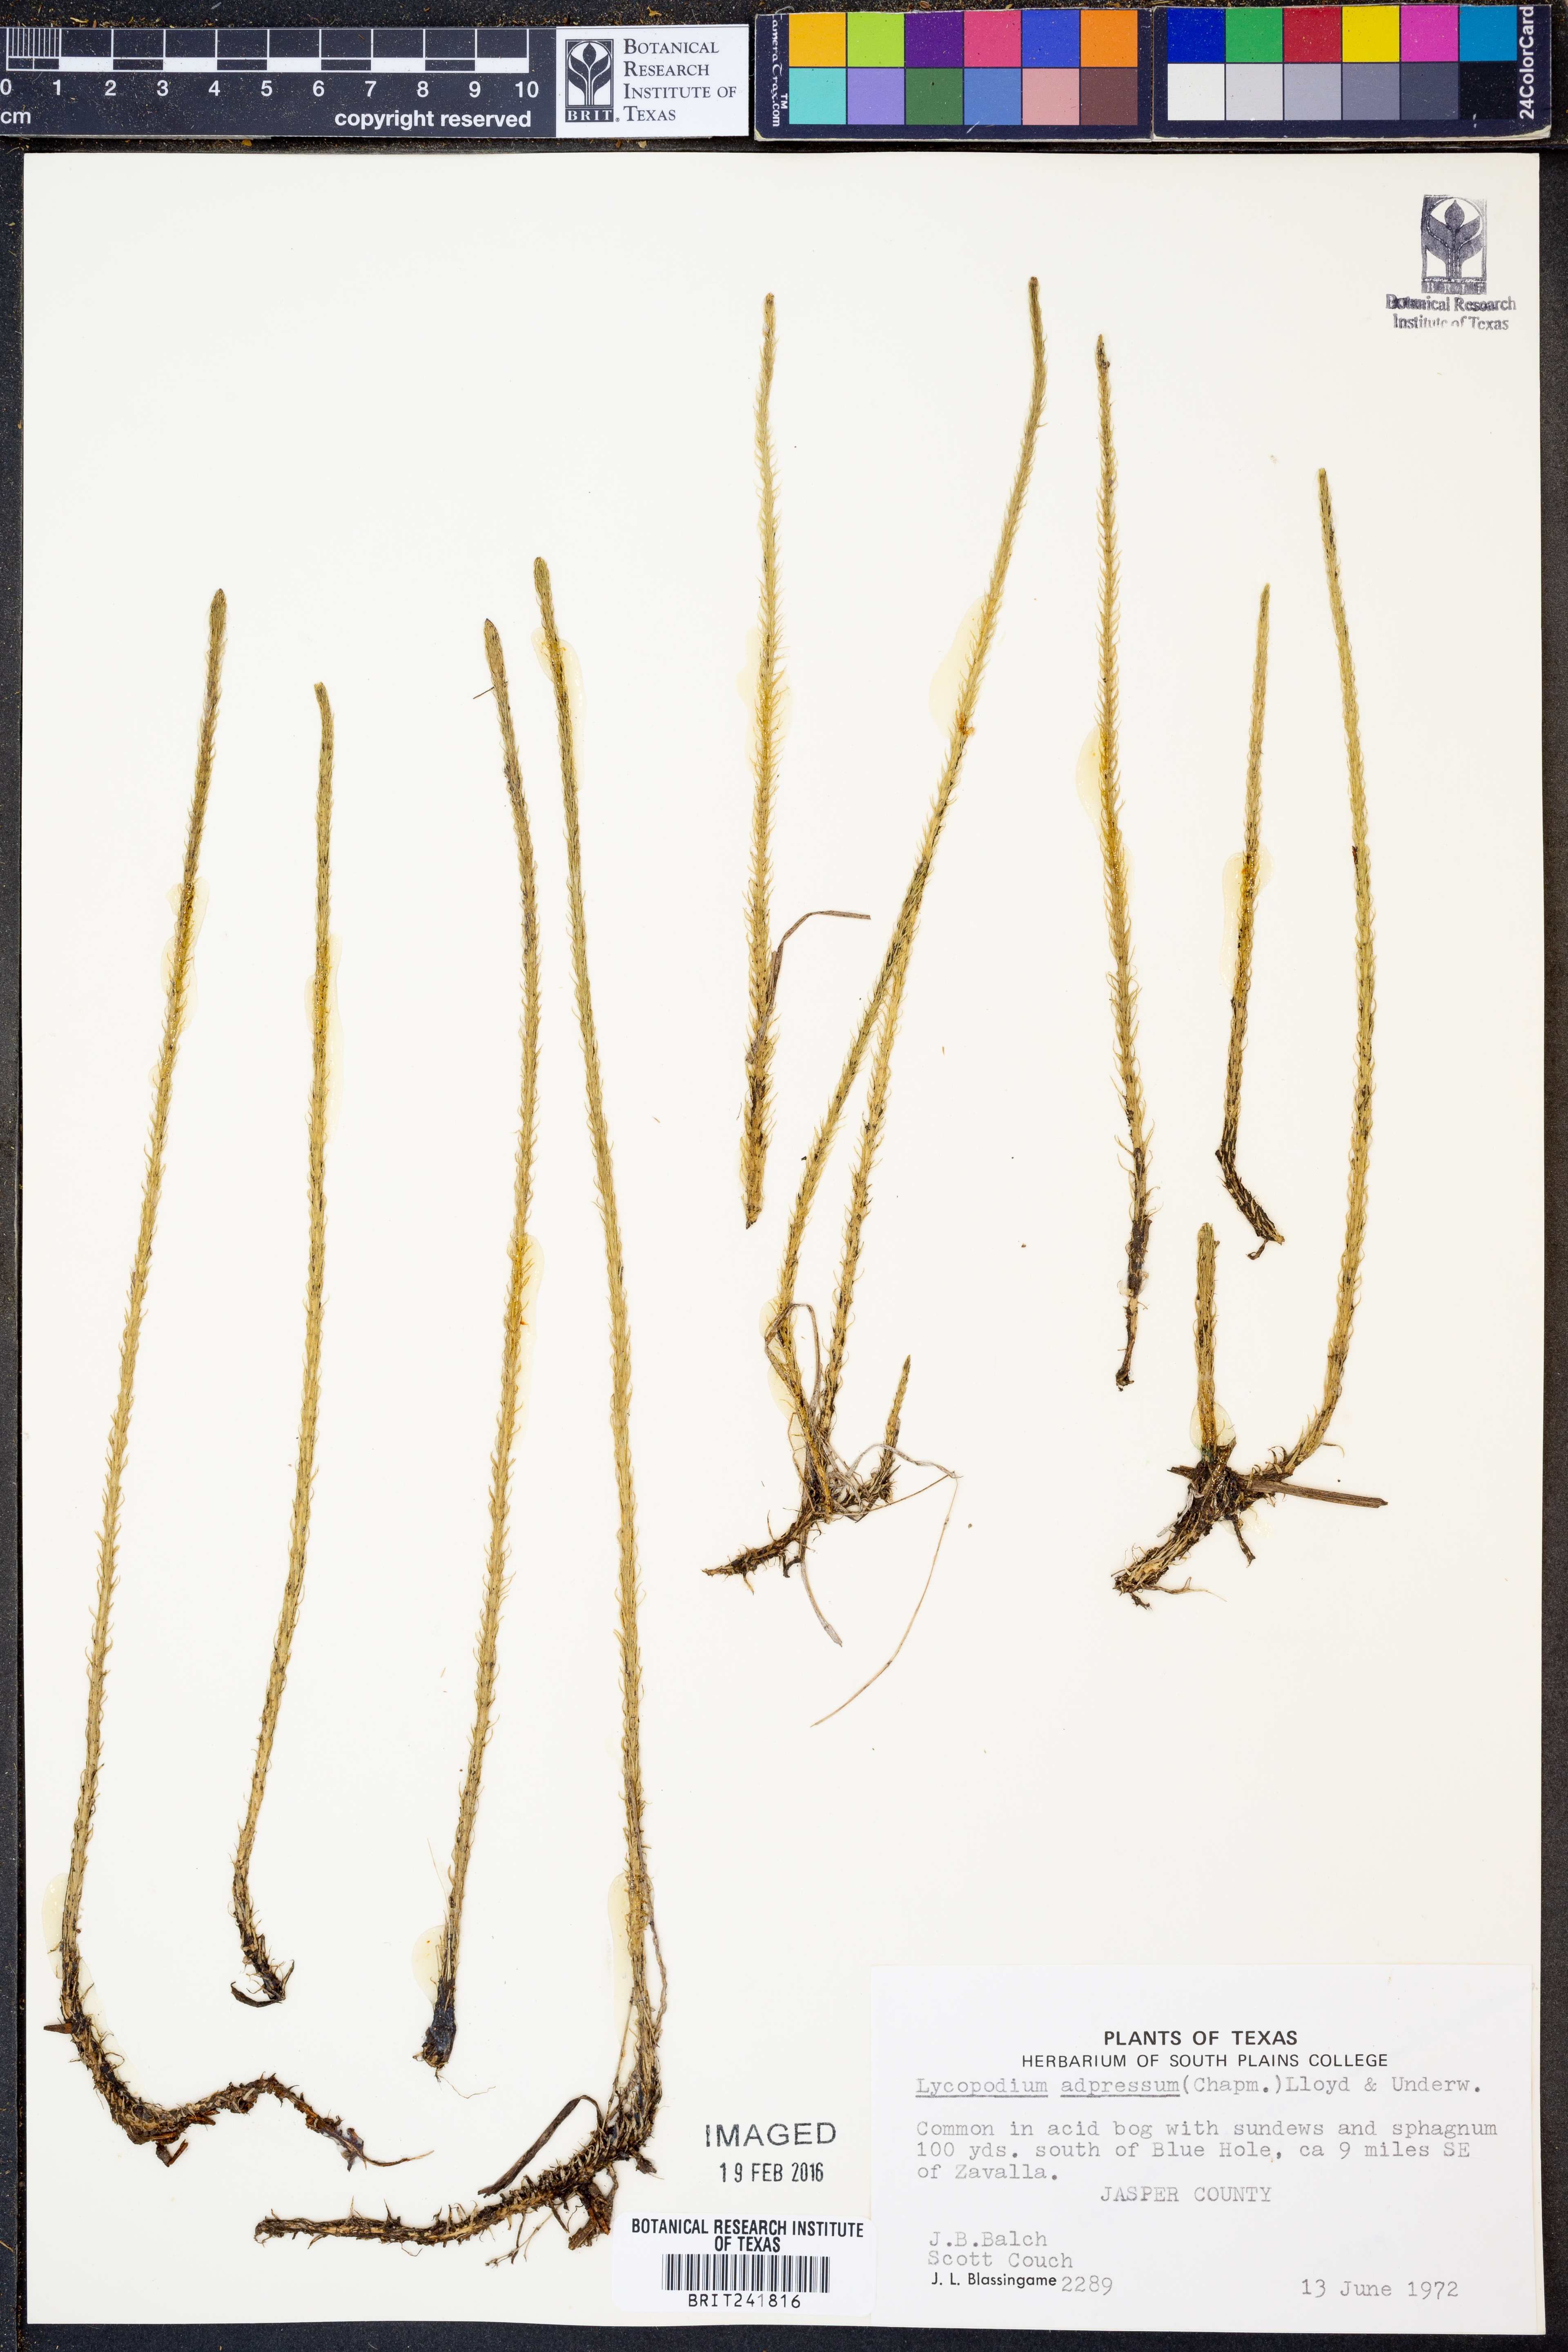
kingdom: Plantae
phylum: Tracheophyta
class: Lycopodiopsida
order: Lycopodiales
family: Lycopodiaceae
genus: Lycopodiella
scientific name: Lycopodiella appressa
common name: Appressed bog clubmoss
